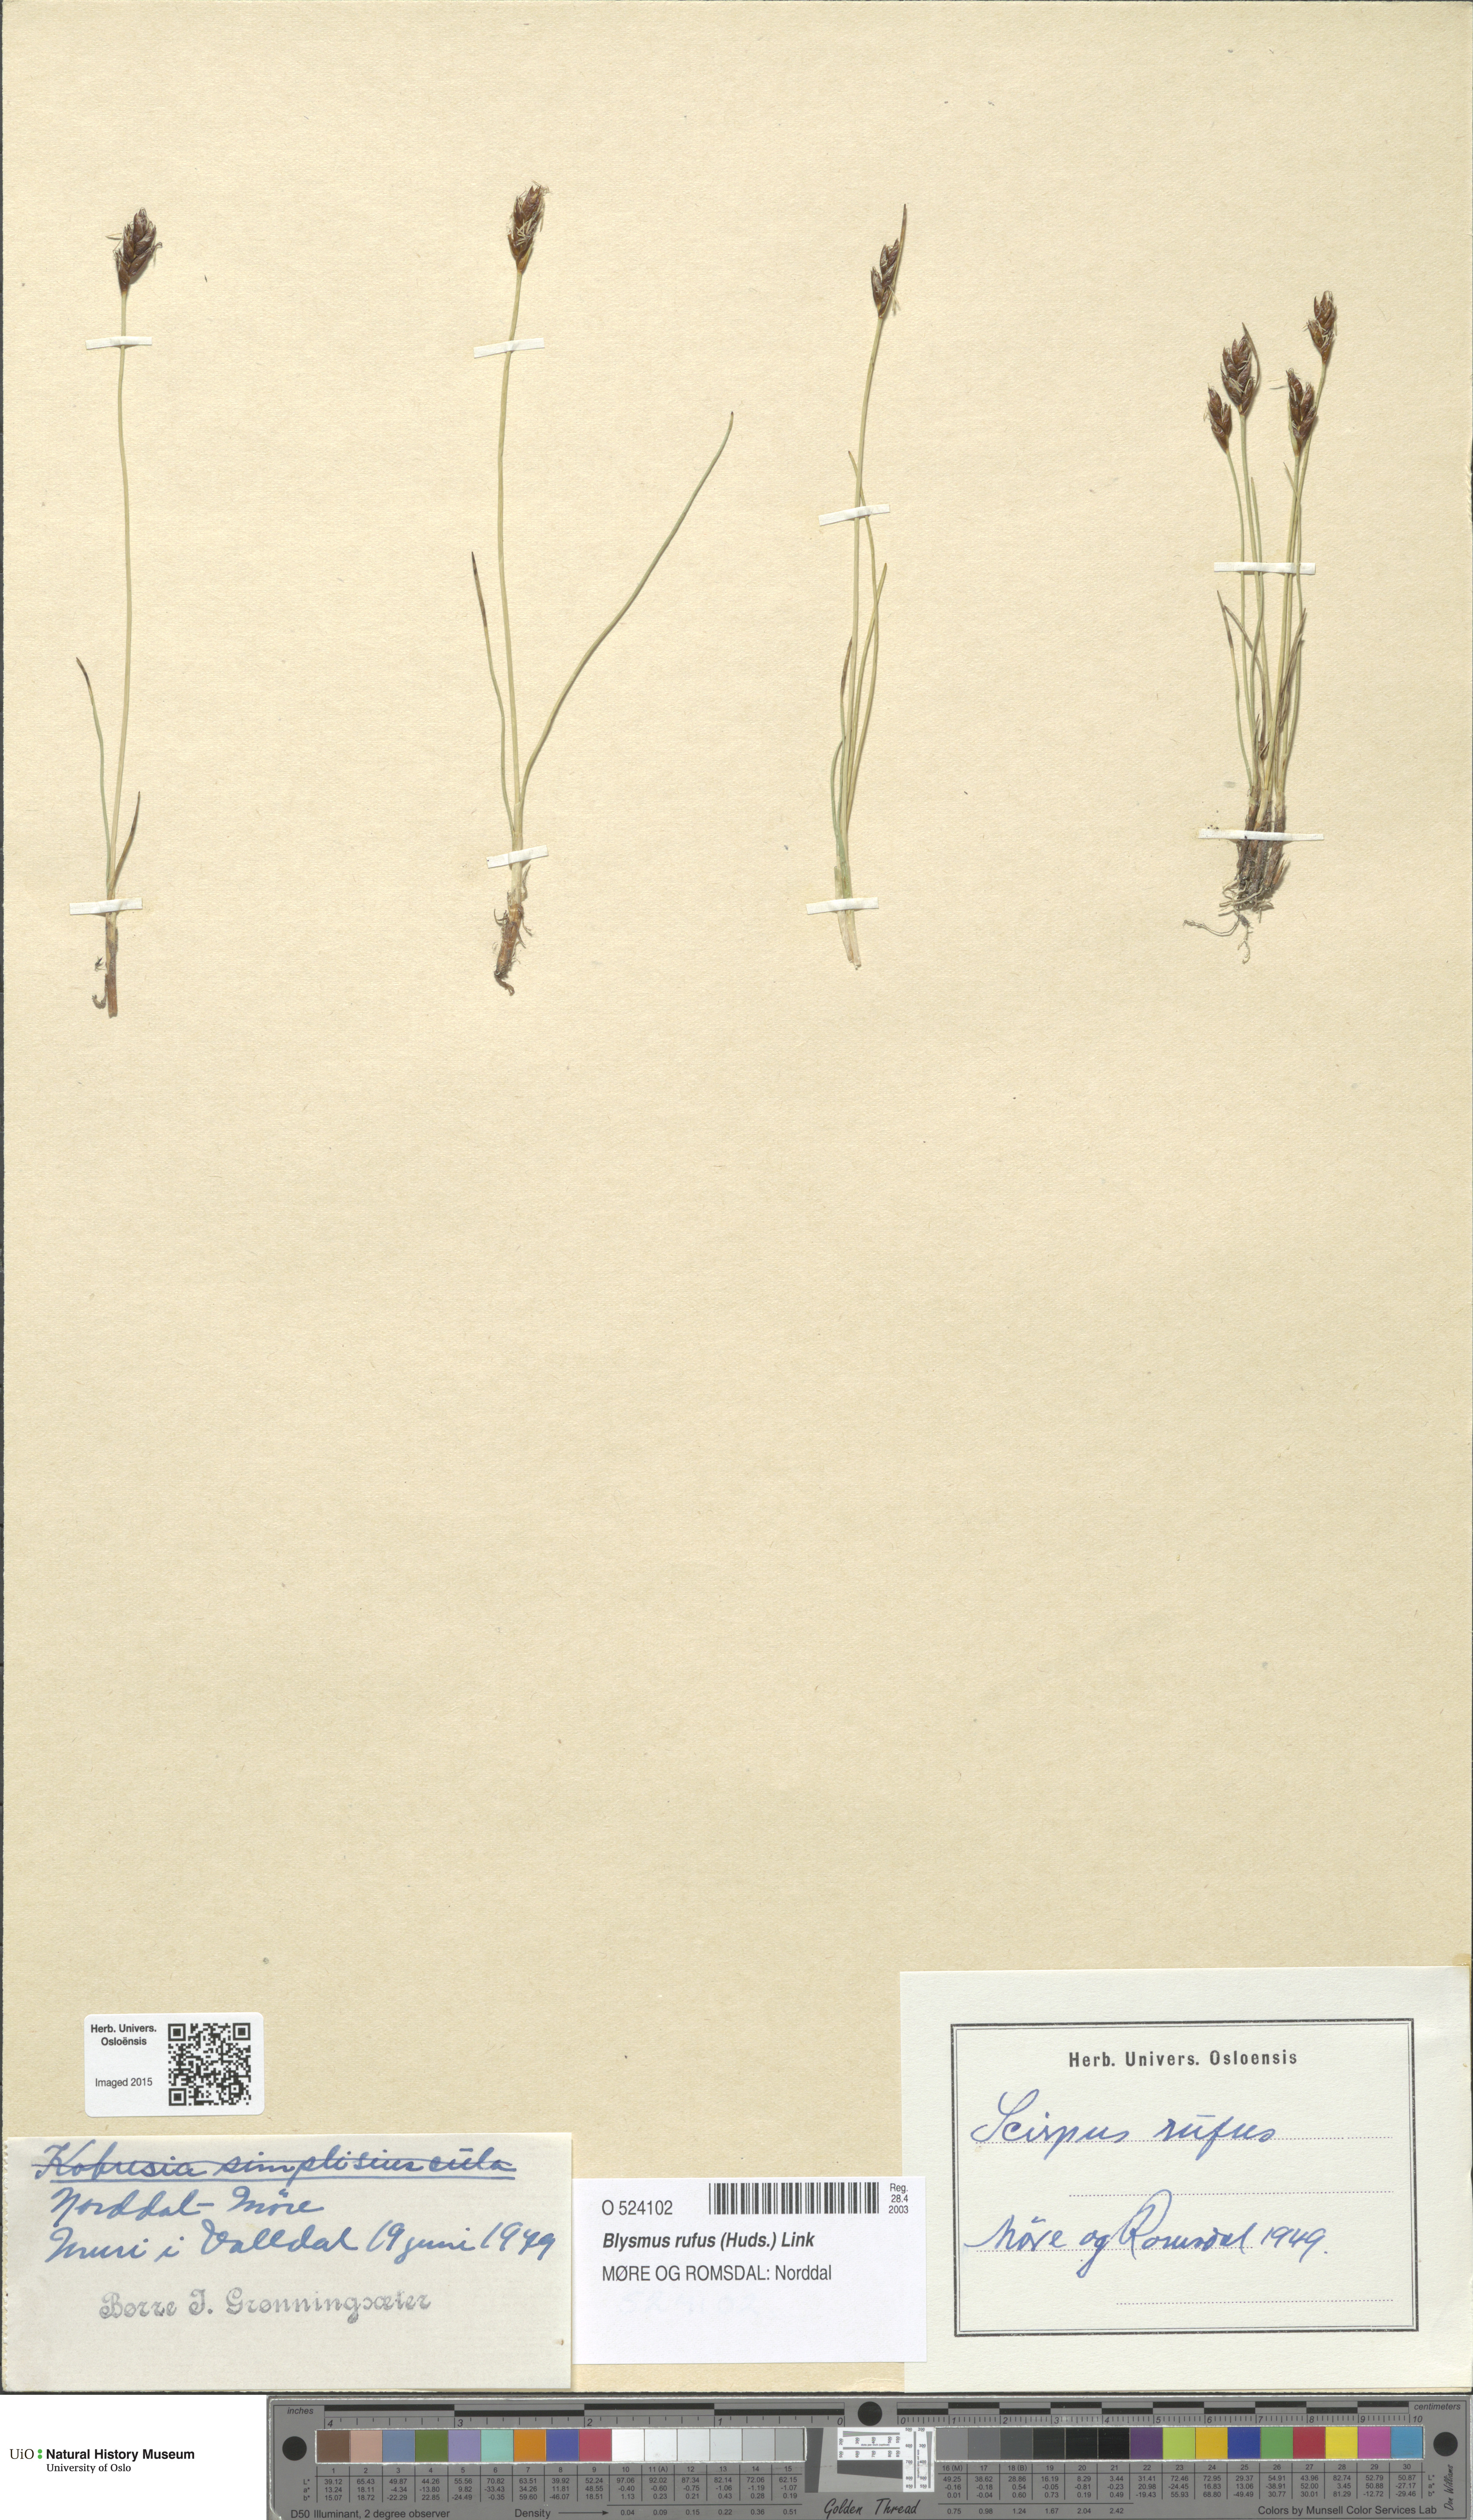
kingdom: Plantae
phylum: Tracheophyta
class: Liliopsida
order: Poales
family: Cyperaceae
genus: Blysmus
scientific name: Blysmus rufus
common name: Saltmarsh flat-sedge
